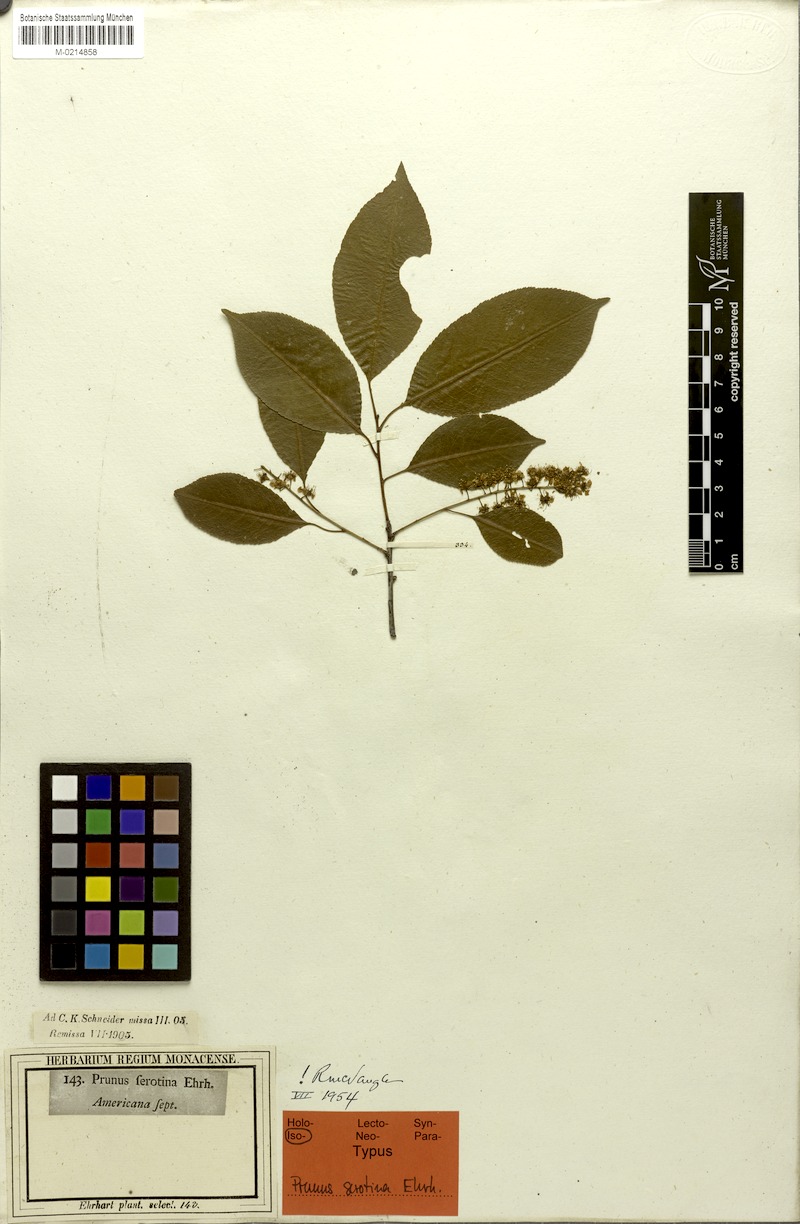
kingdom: Plantae
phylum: Tracheophyta
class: Magnoliopsida
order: Rosales
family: Rosaceae
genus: Prunus
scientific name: Prunus serotina
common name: Black cherry
